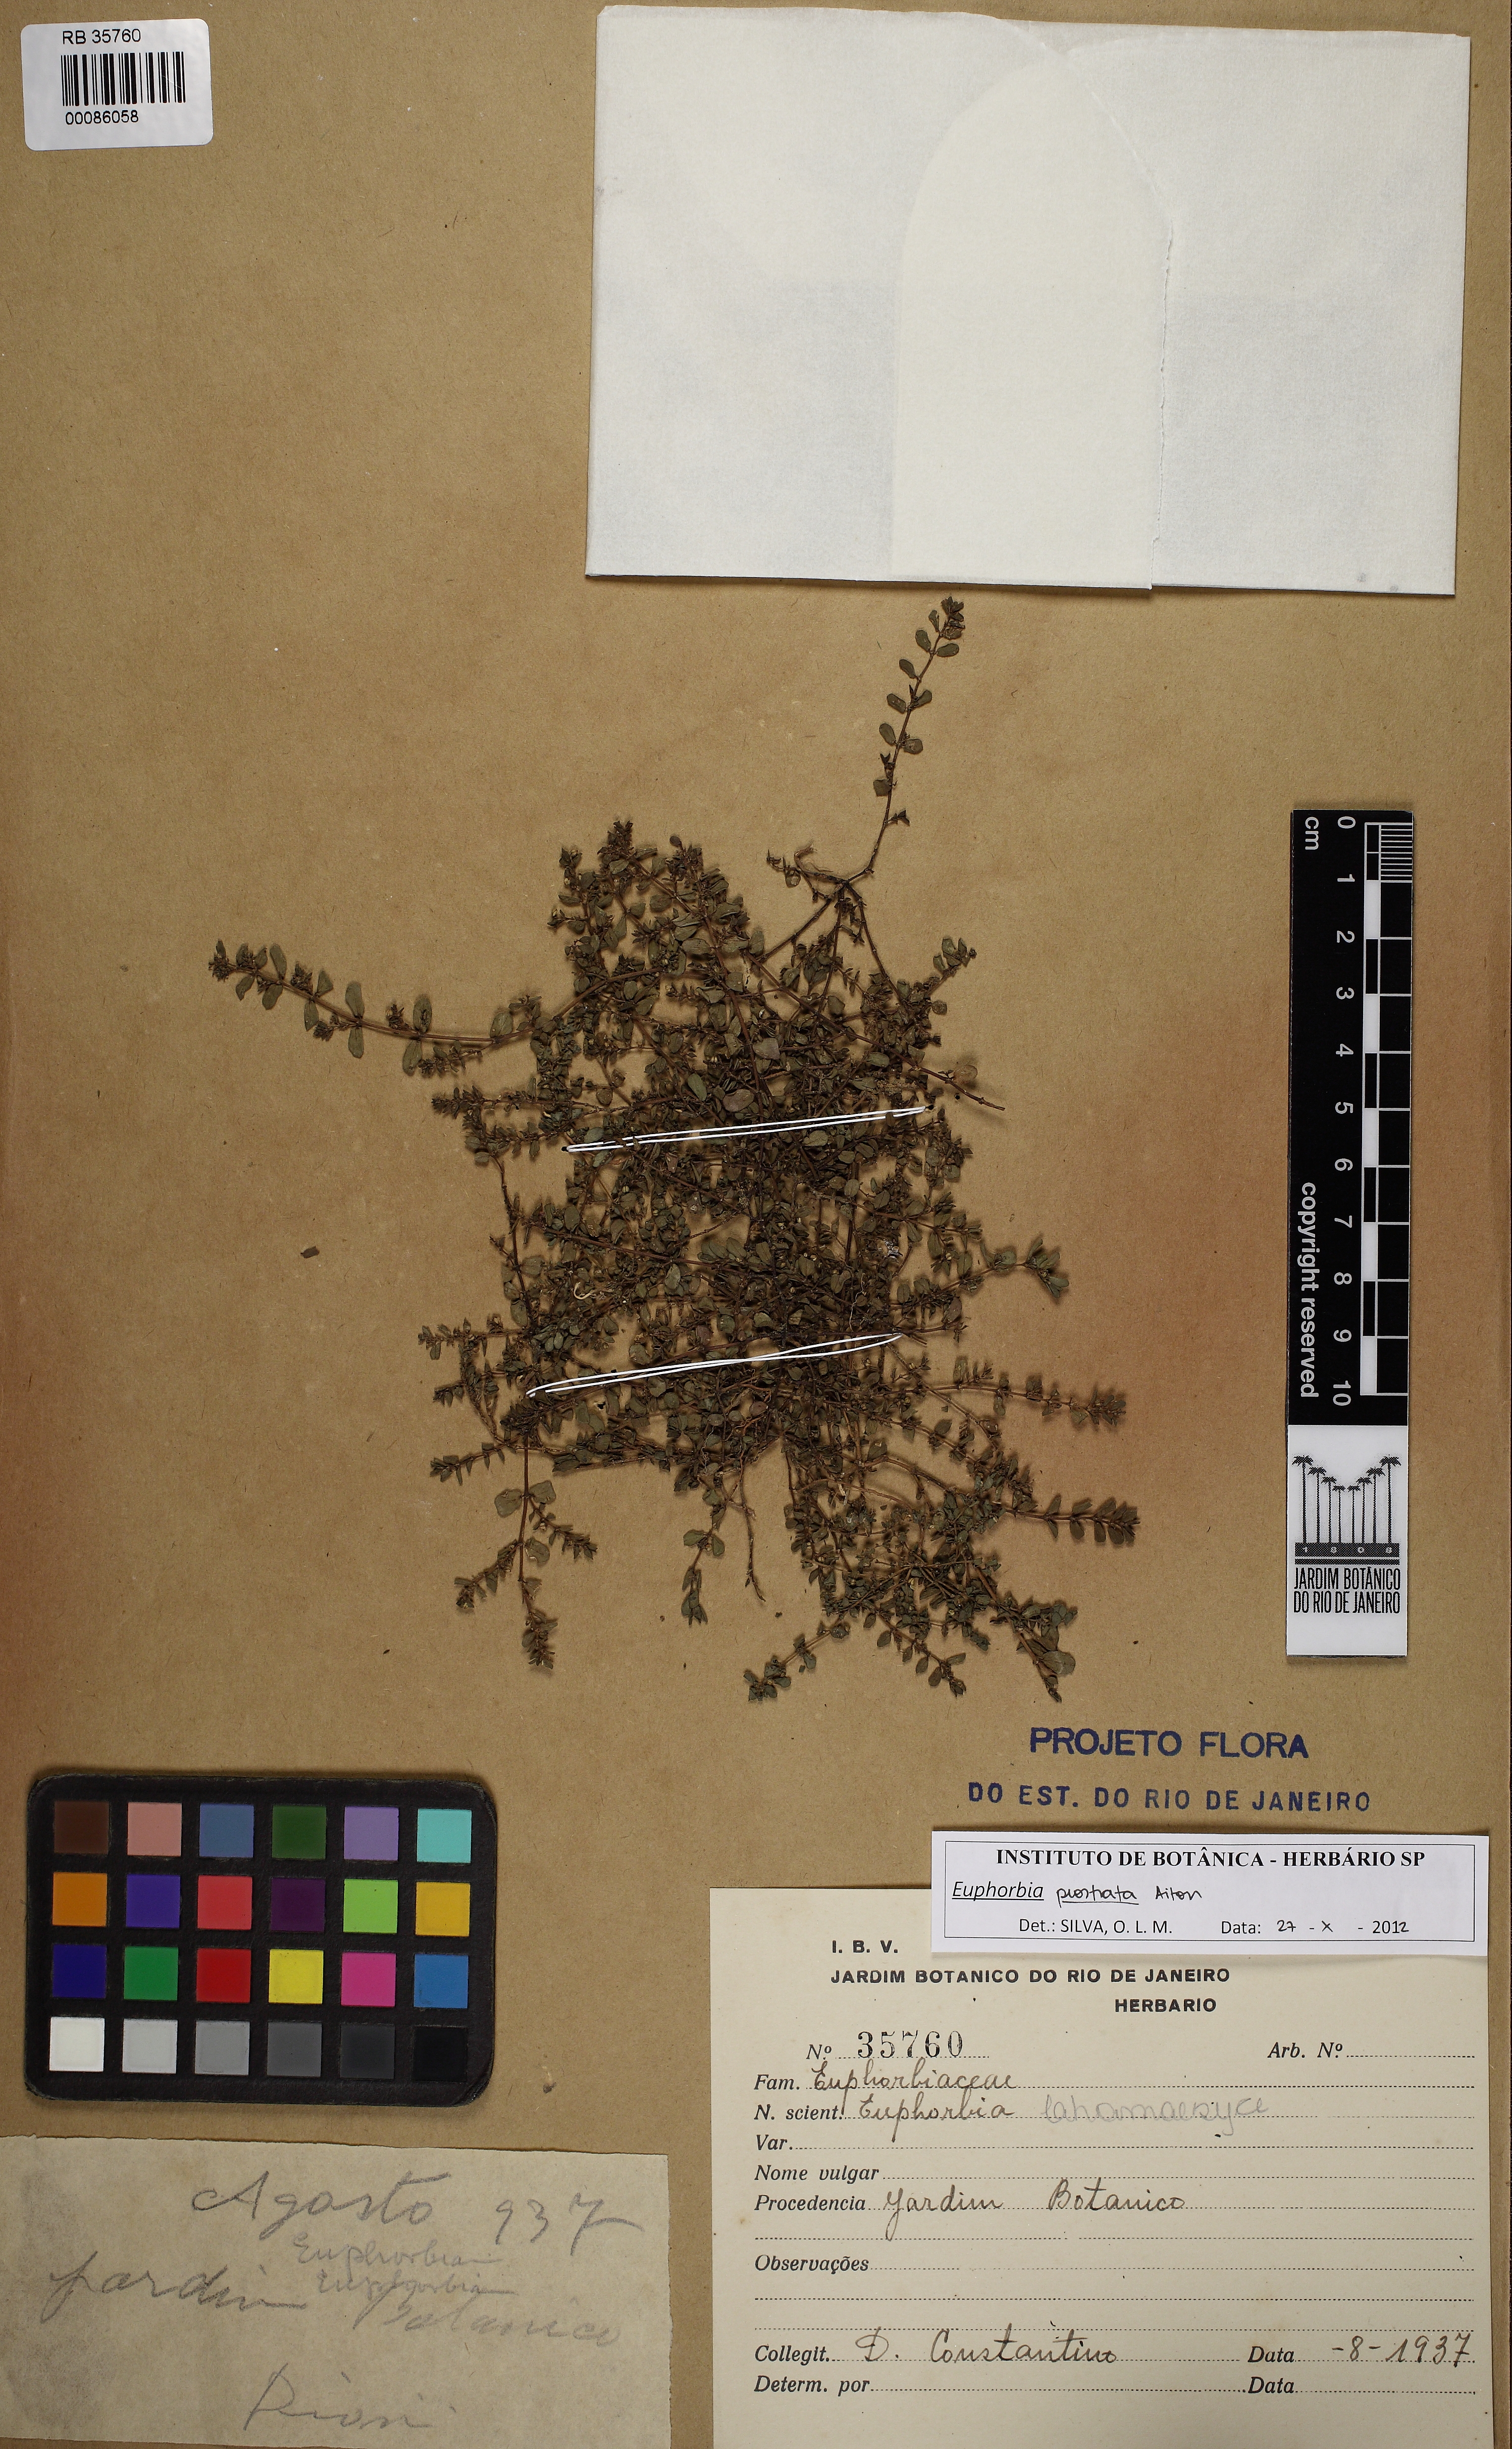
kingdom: Plantae
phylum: Tracheophyta
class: Magnoliopsida
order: Malpighiales
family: Euphorbiaceae
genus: Euphorbia
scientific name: Euphorbia prostrata
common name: Prostrate sandmat
